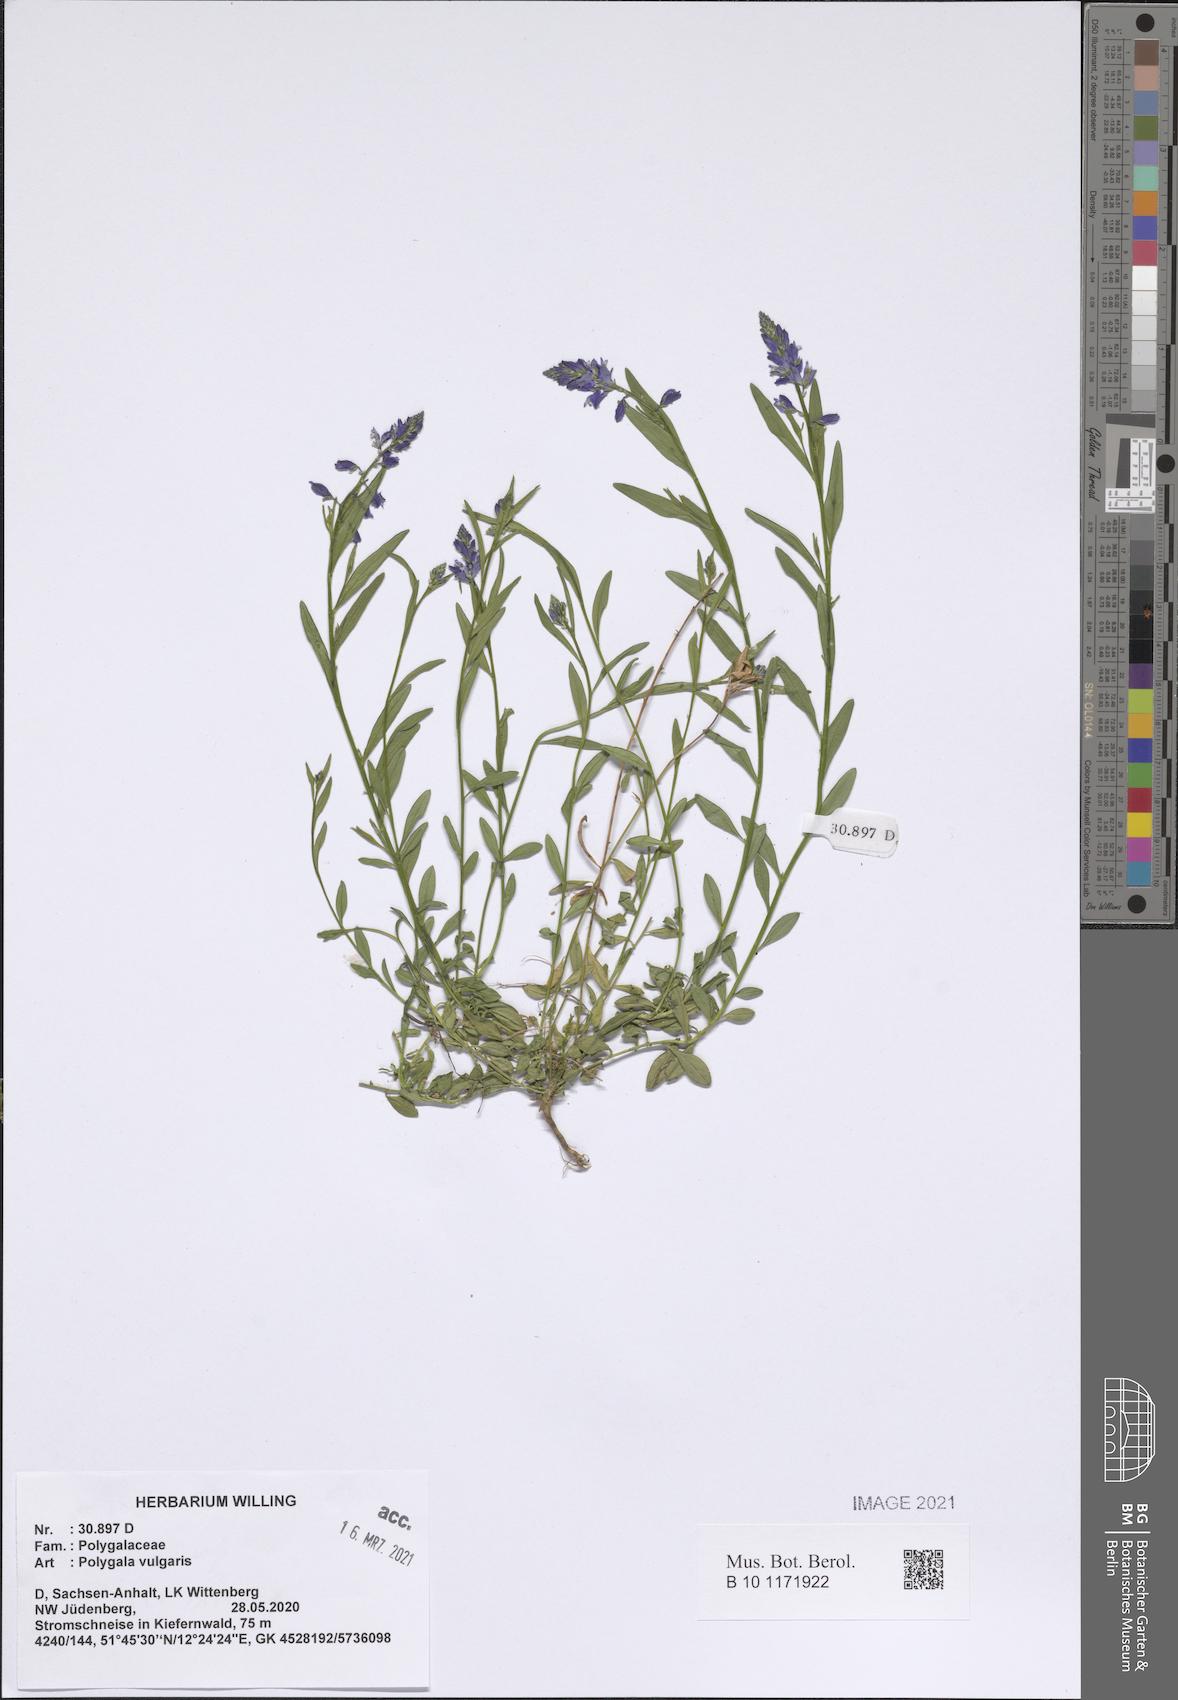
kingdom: Plantae
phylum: Tracheophyta
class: Magnoliopsida
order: Fabales
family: Polygalaceae
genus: Polygala
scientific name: Polygala vulgaris
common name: Common milkwort
